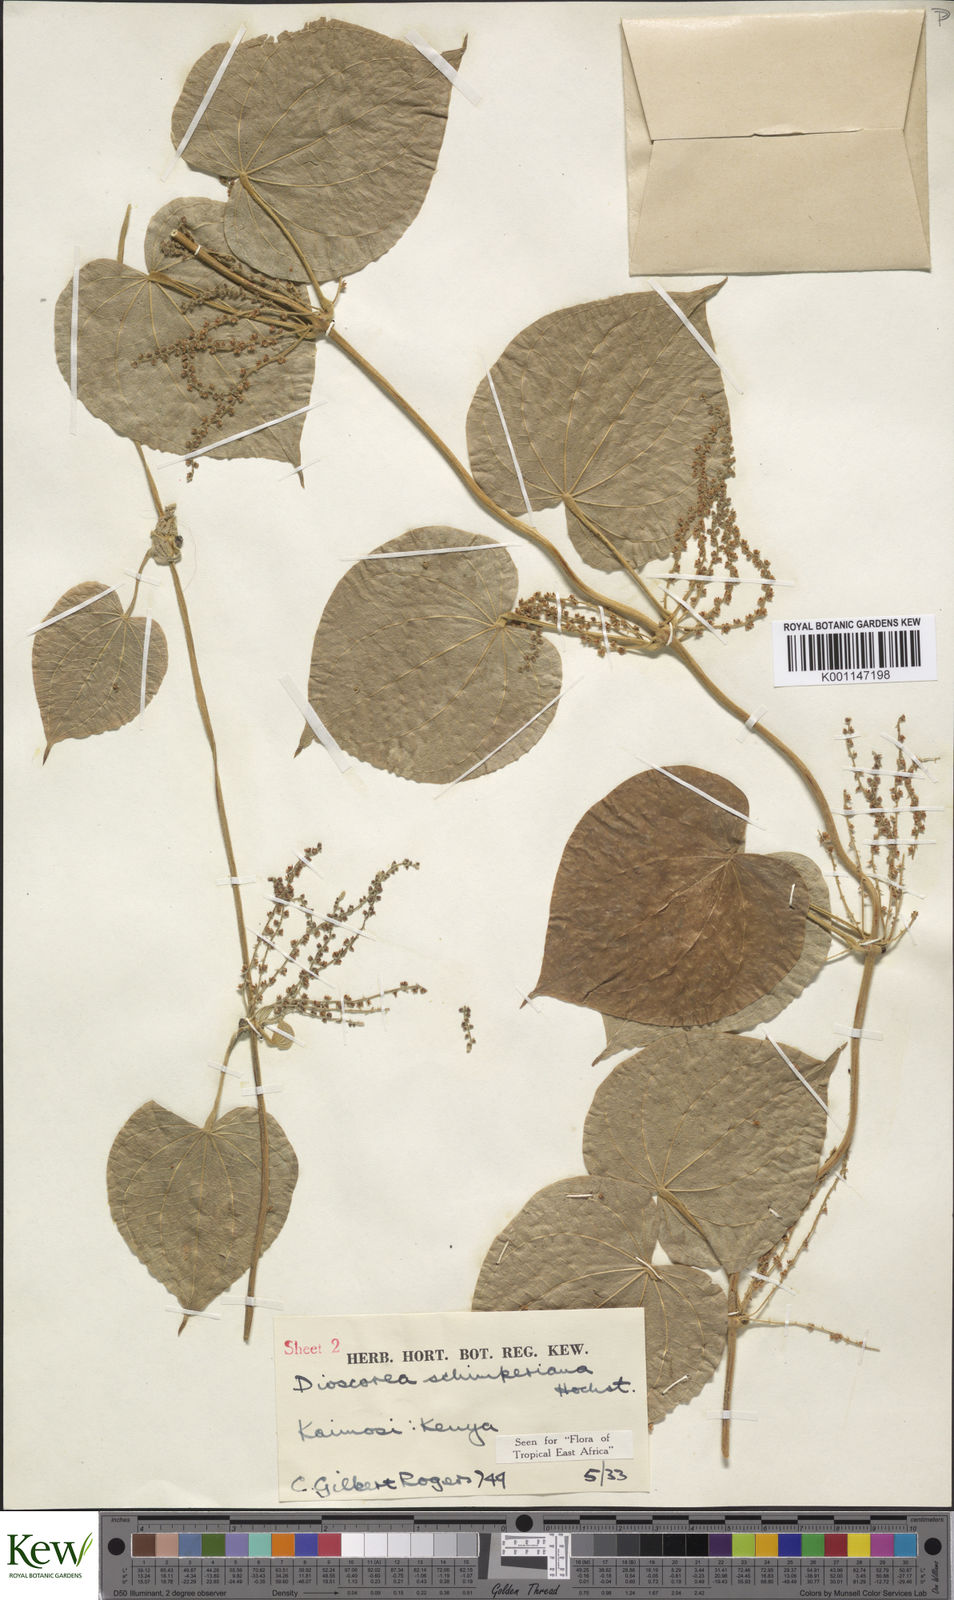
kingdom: Plantae
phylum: Tracheophyta
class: Liliopsida
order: Dioscoreales
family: Dioscoreaceae
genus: Dioscorea
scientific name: Dioscorea schimperiana
